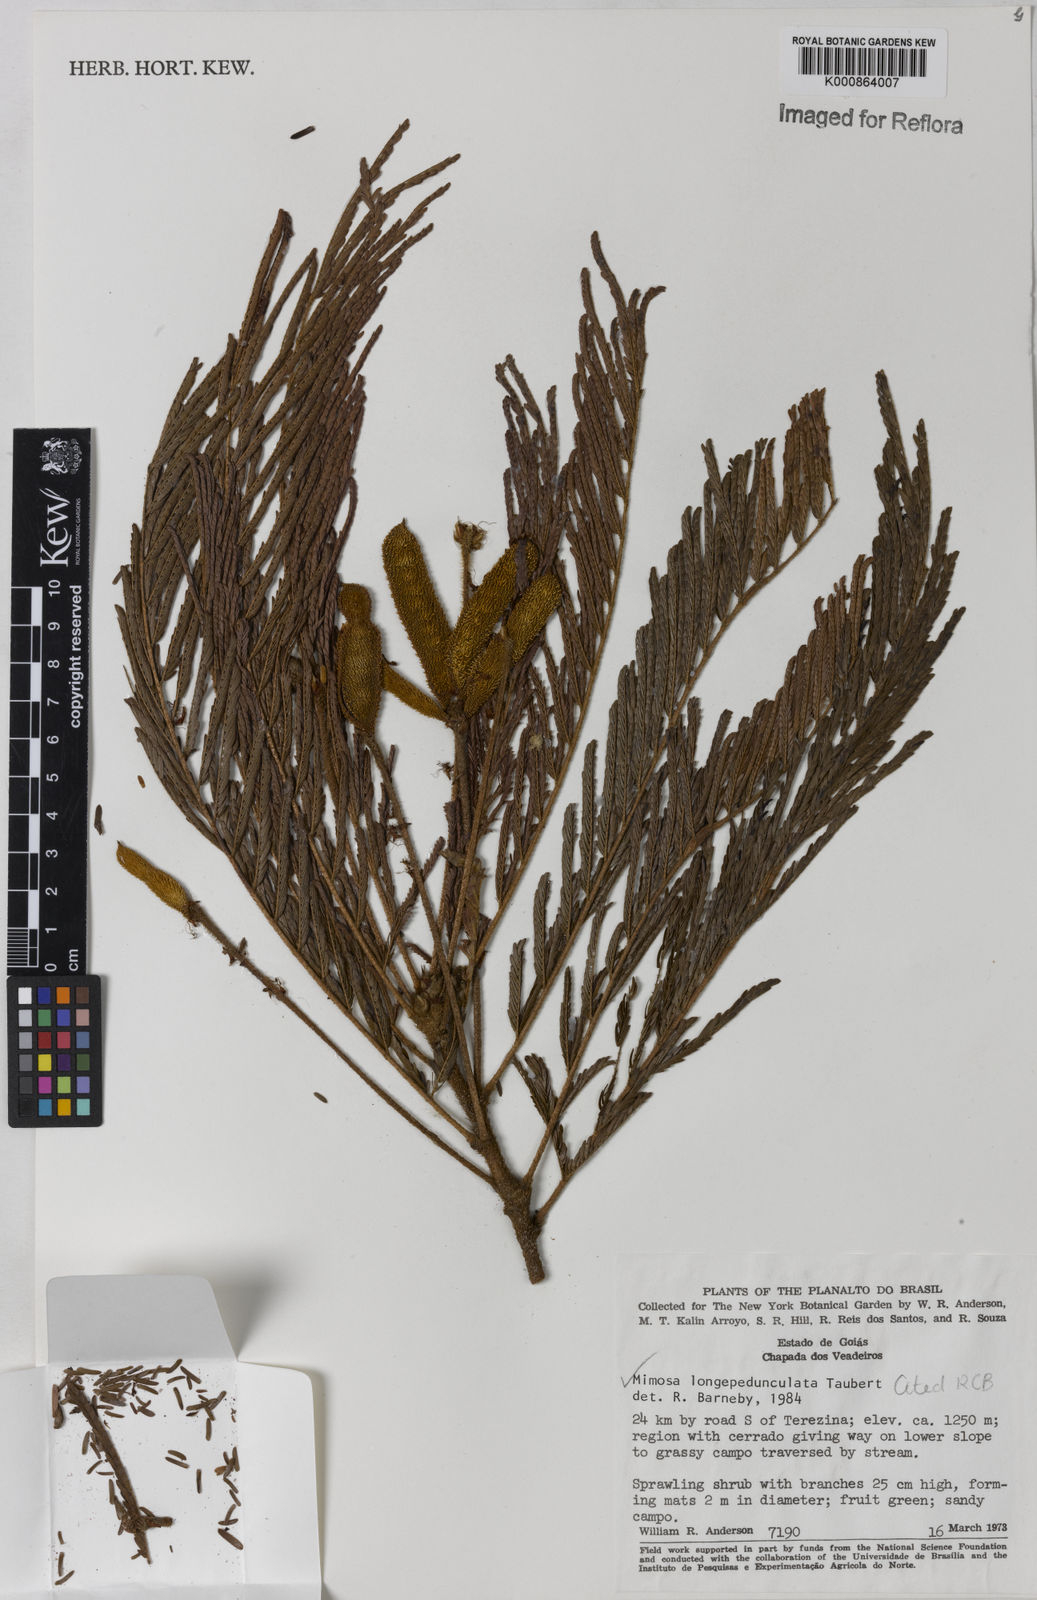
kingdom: Plantae
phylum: Tracheophyta
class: Magnoliopsida
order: Fabales
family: Fabaceae
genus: Mimosa
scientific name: Mimosa tocantina
